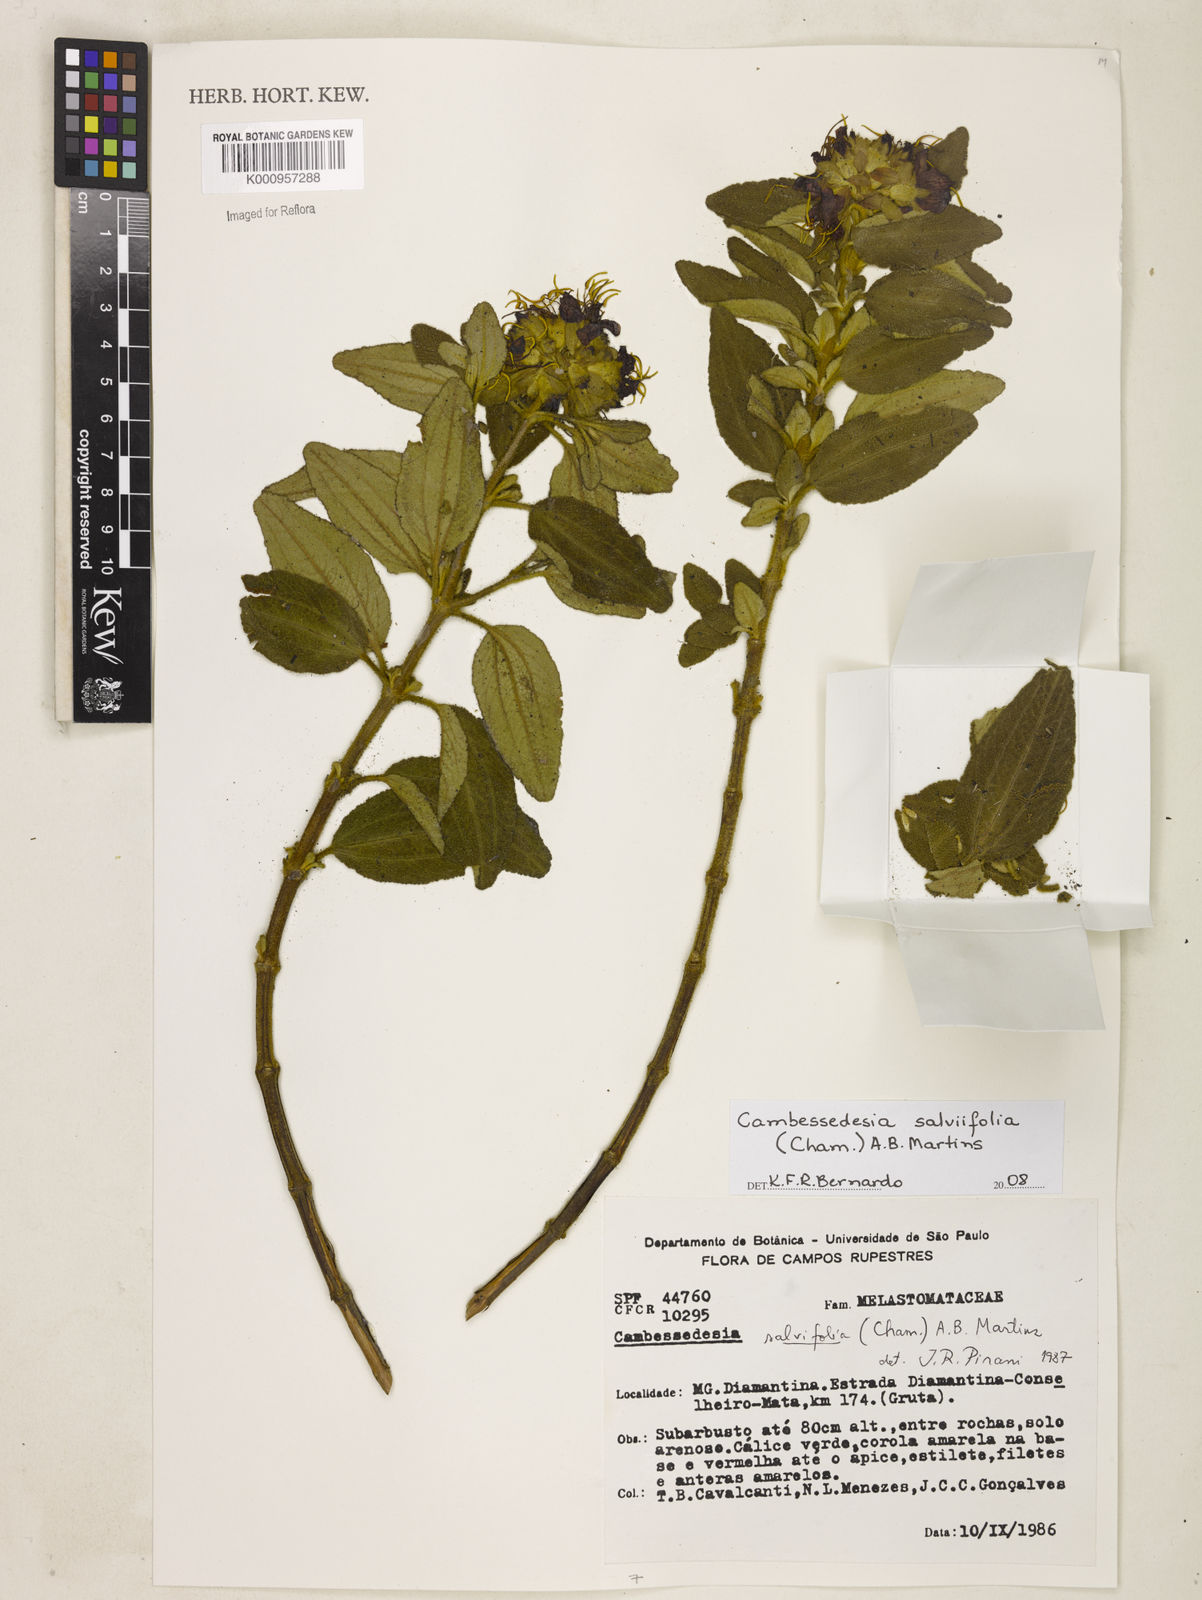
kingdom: Plantae
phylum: Tracheophyta
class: Magnoliopsida
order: Myrtales
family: Melastomataceae
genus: Cambessedesia
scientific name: Cambessedesia
